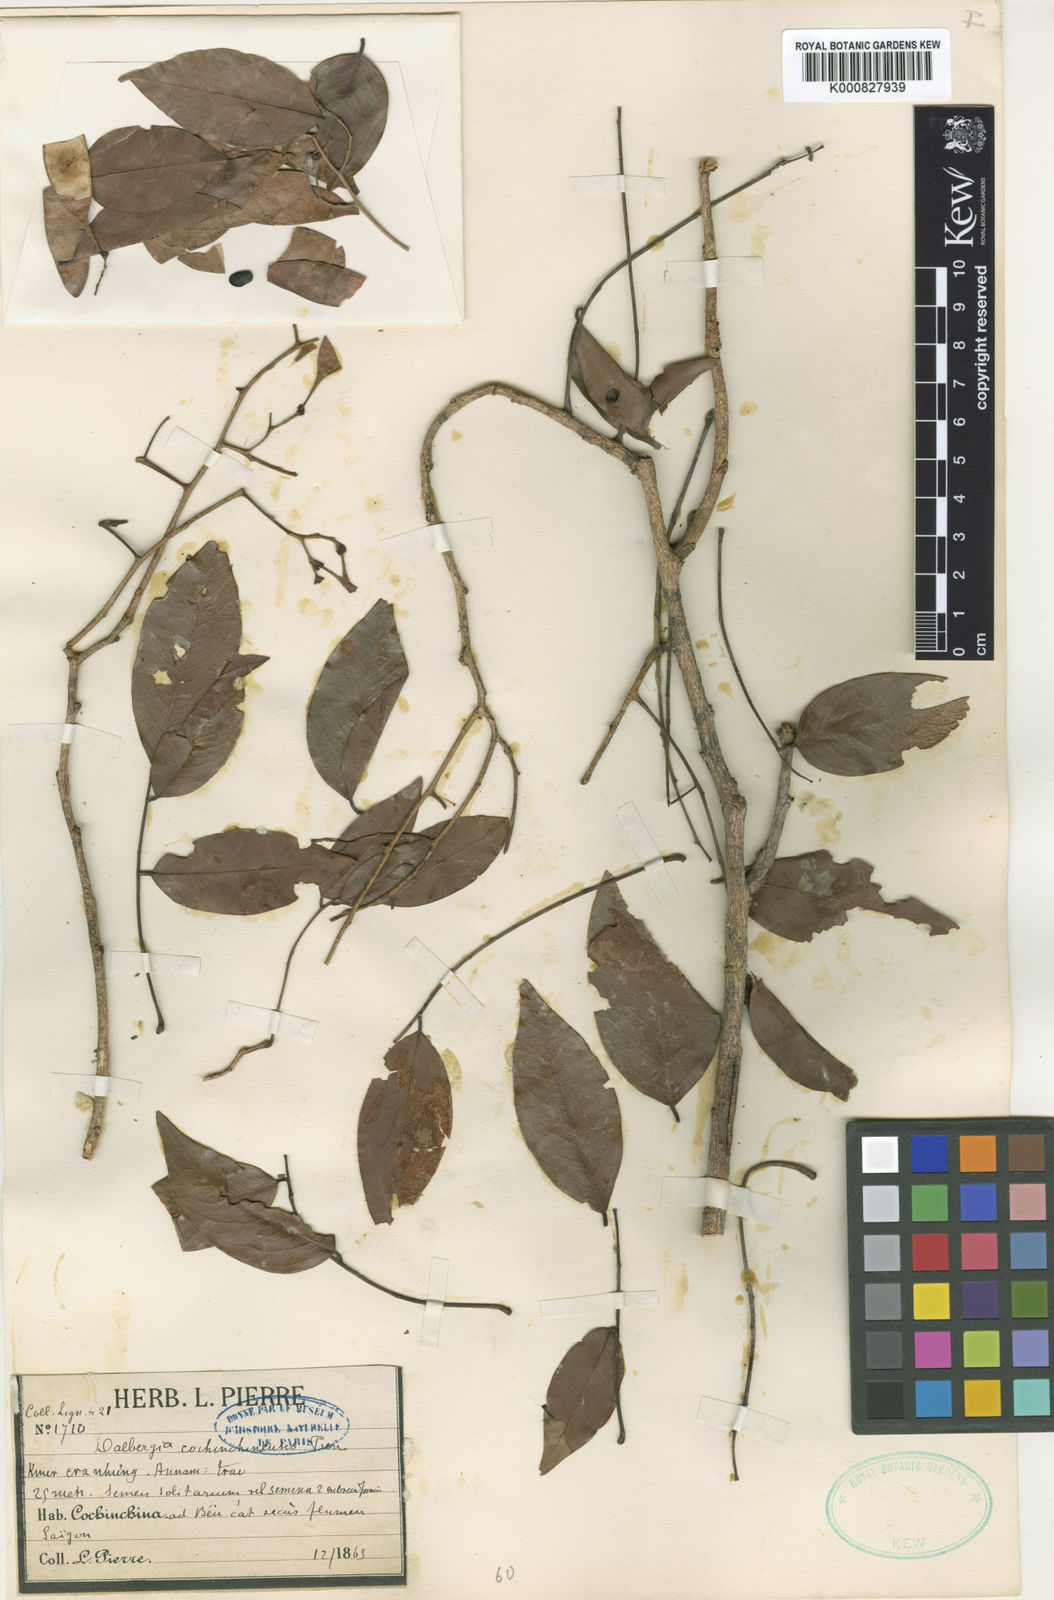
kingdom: Plantae
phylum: Tracheophyta
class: Magnoliopsida
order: Fabales
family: Fabaceae
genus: Dalbergia
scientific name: Dalbergia cochinchinensis
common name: Siamese rosewood
